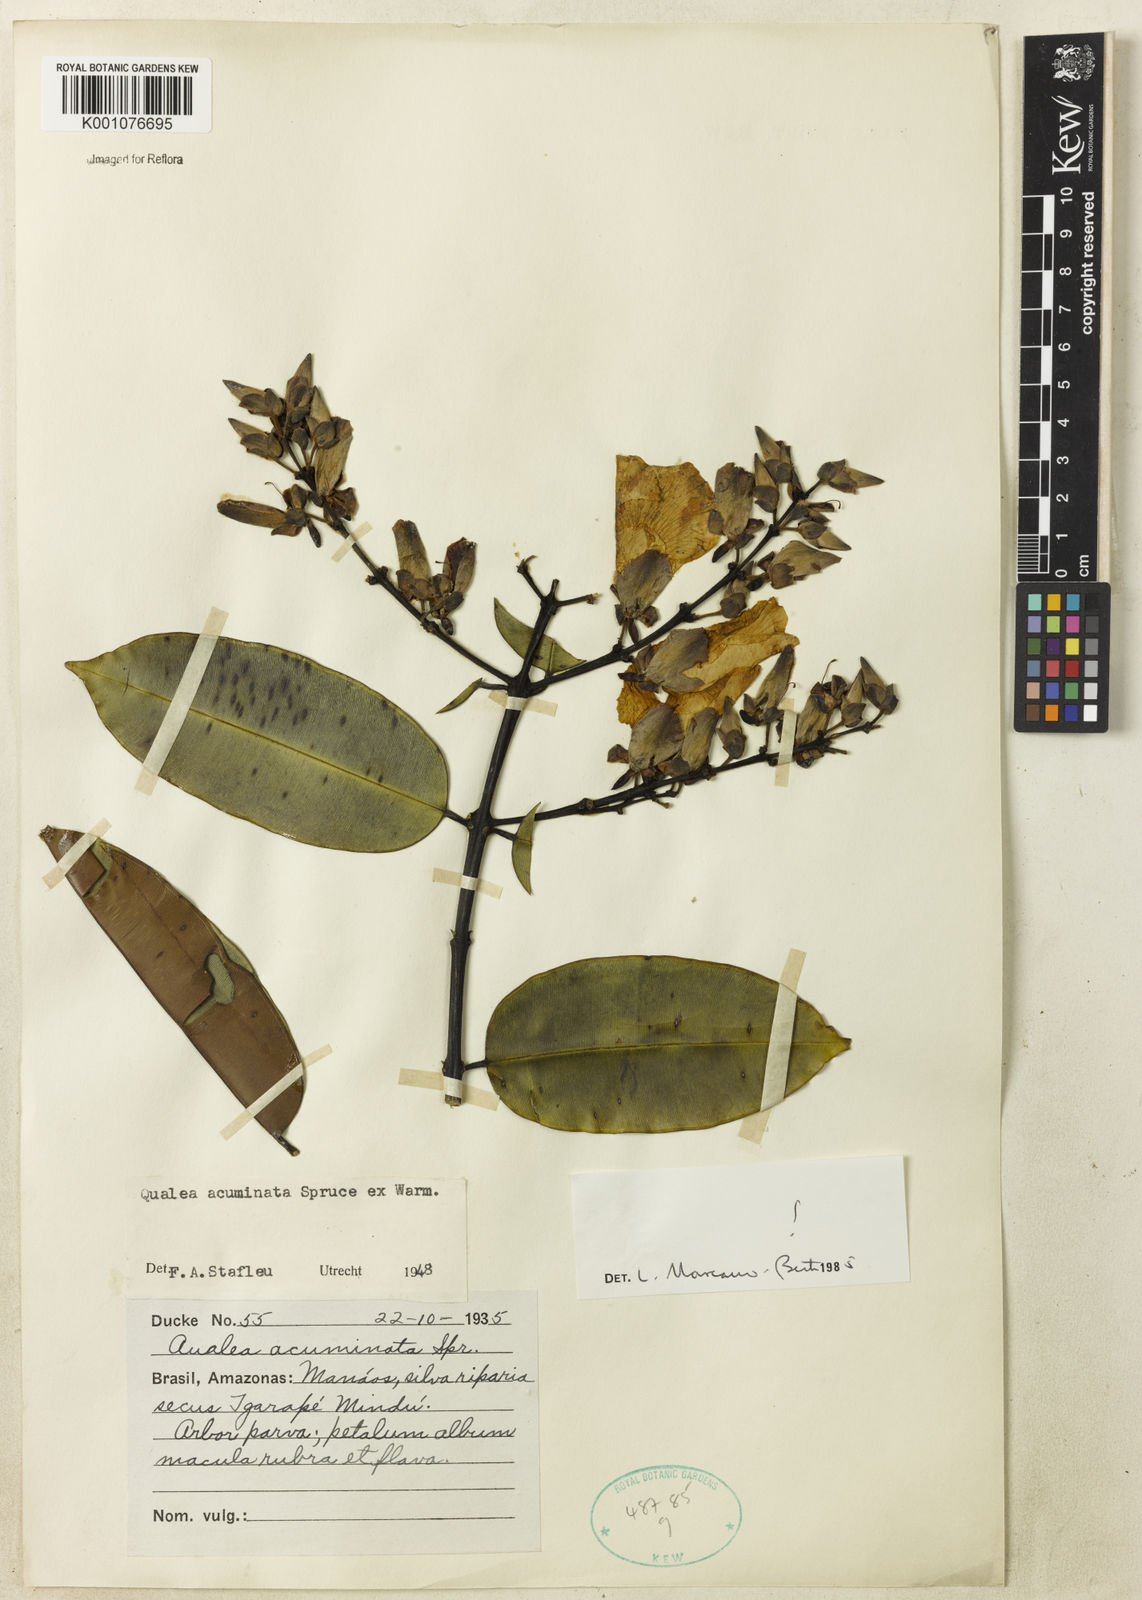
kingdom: Plantae
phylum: Tracheophyta
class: Magnoliopsida
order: Myrtales
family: Vochysiaceae
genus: Qualea
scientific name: Qualea acuminata
